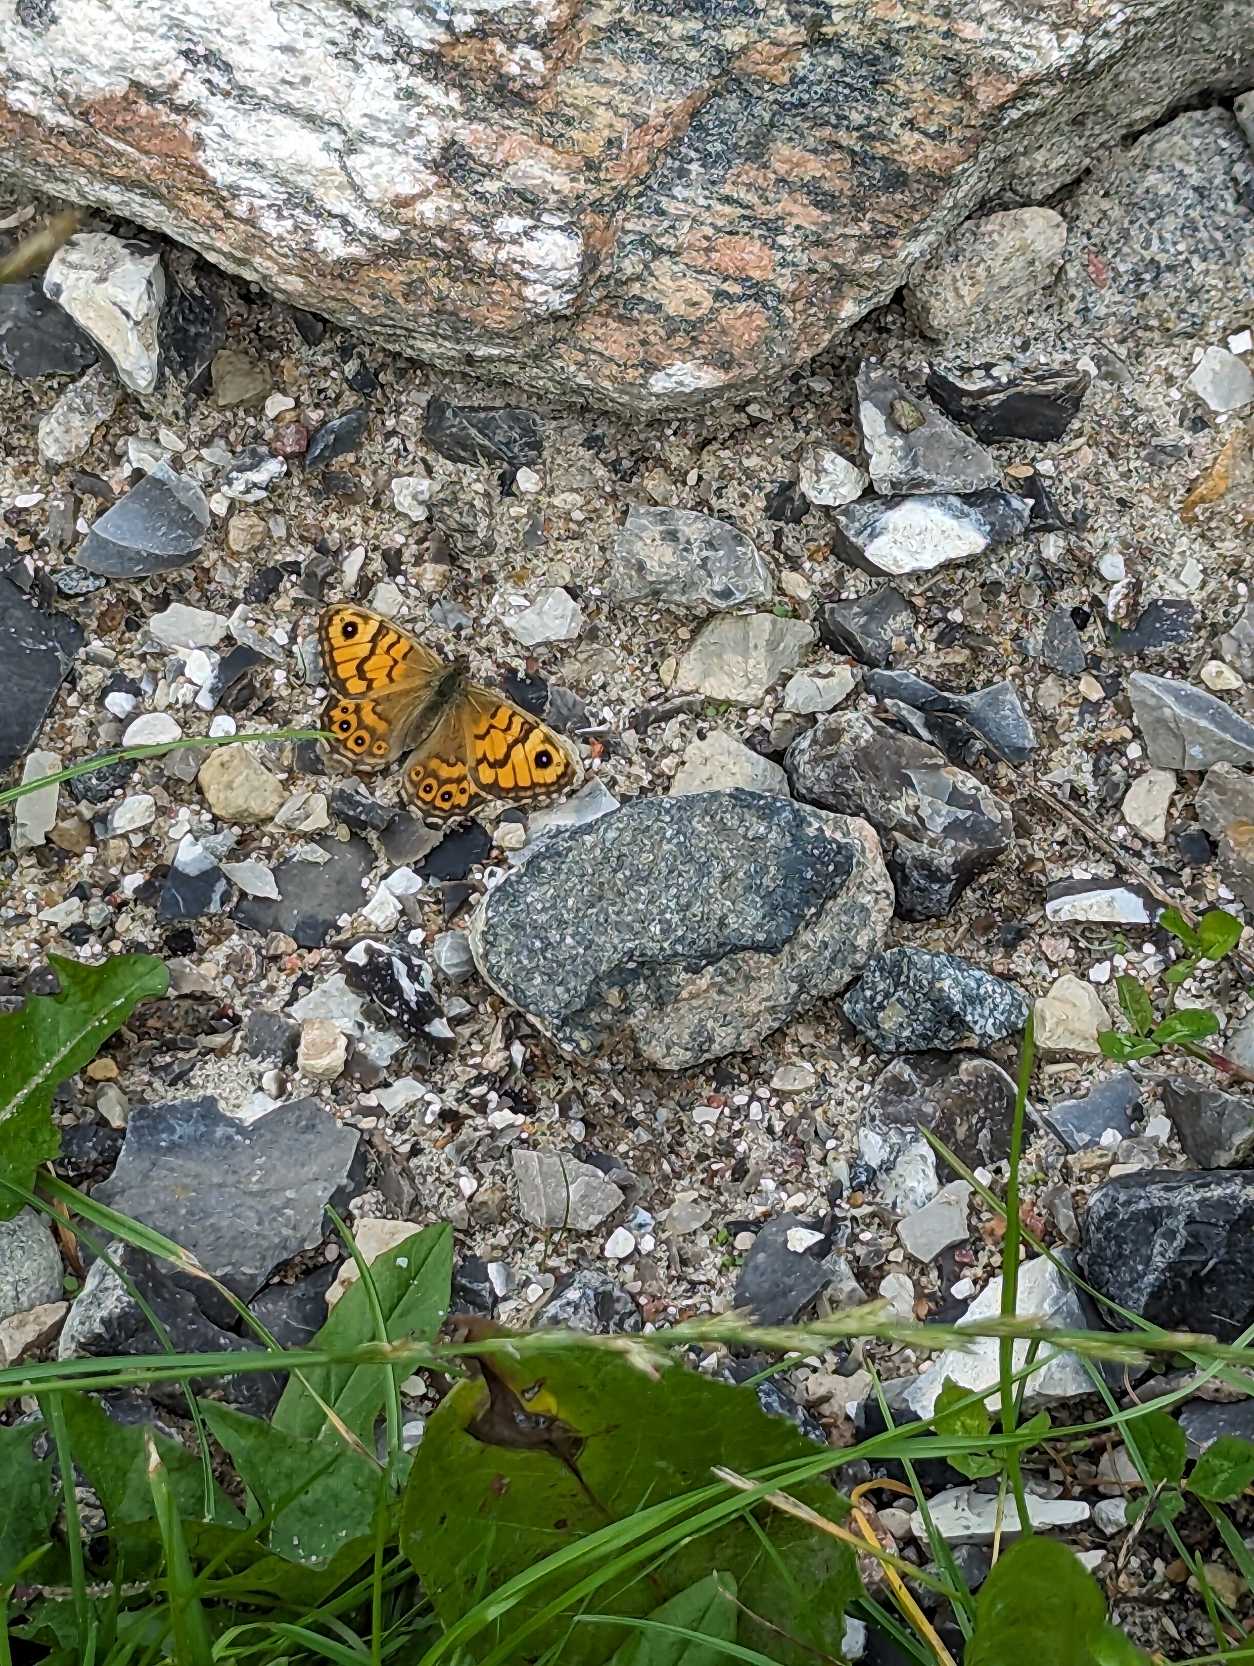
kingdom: Animalia
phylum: Arthropoda
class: Insecta
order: Lepidoptera
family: Nymphalidae
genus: Pararge
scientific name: Pararge Lasiommata megera
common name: Vejrandøje
